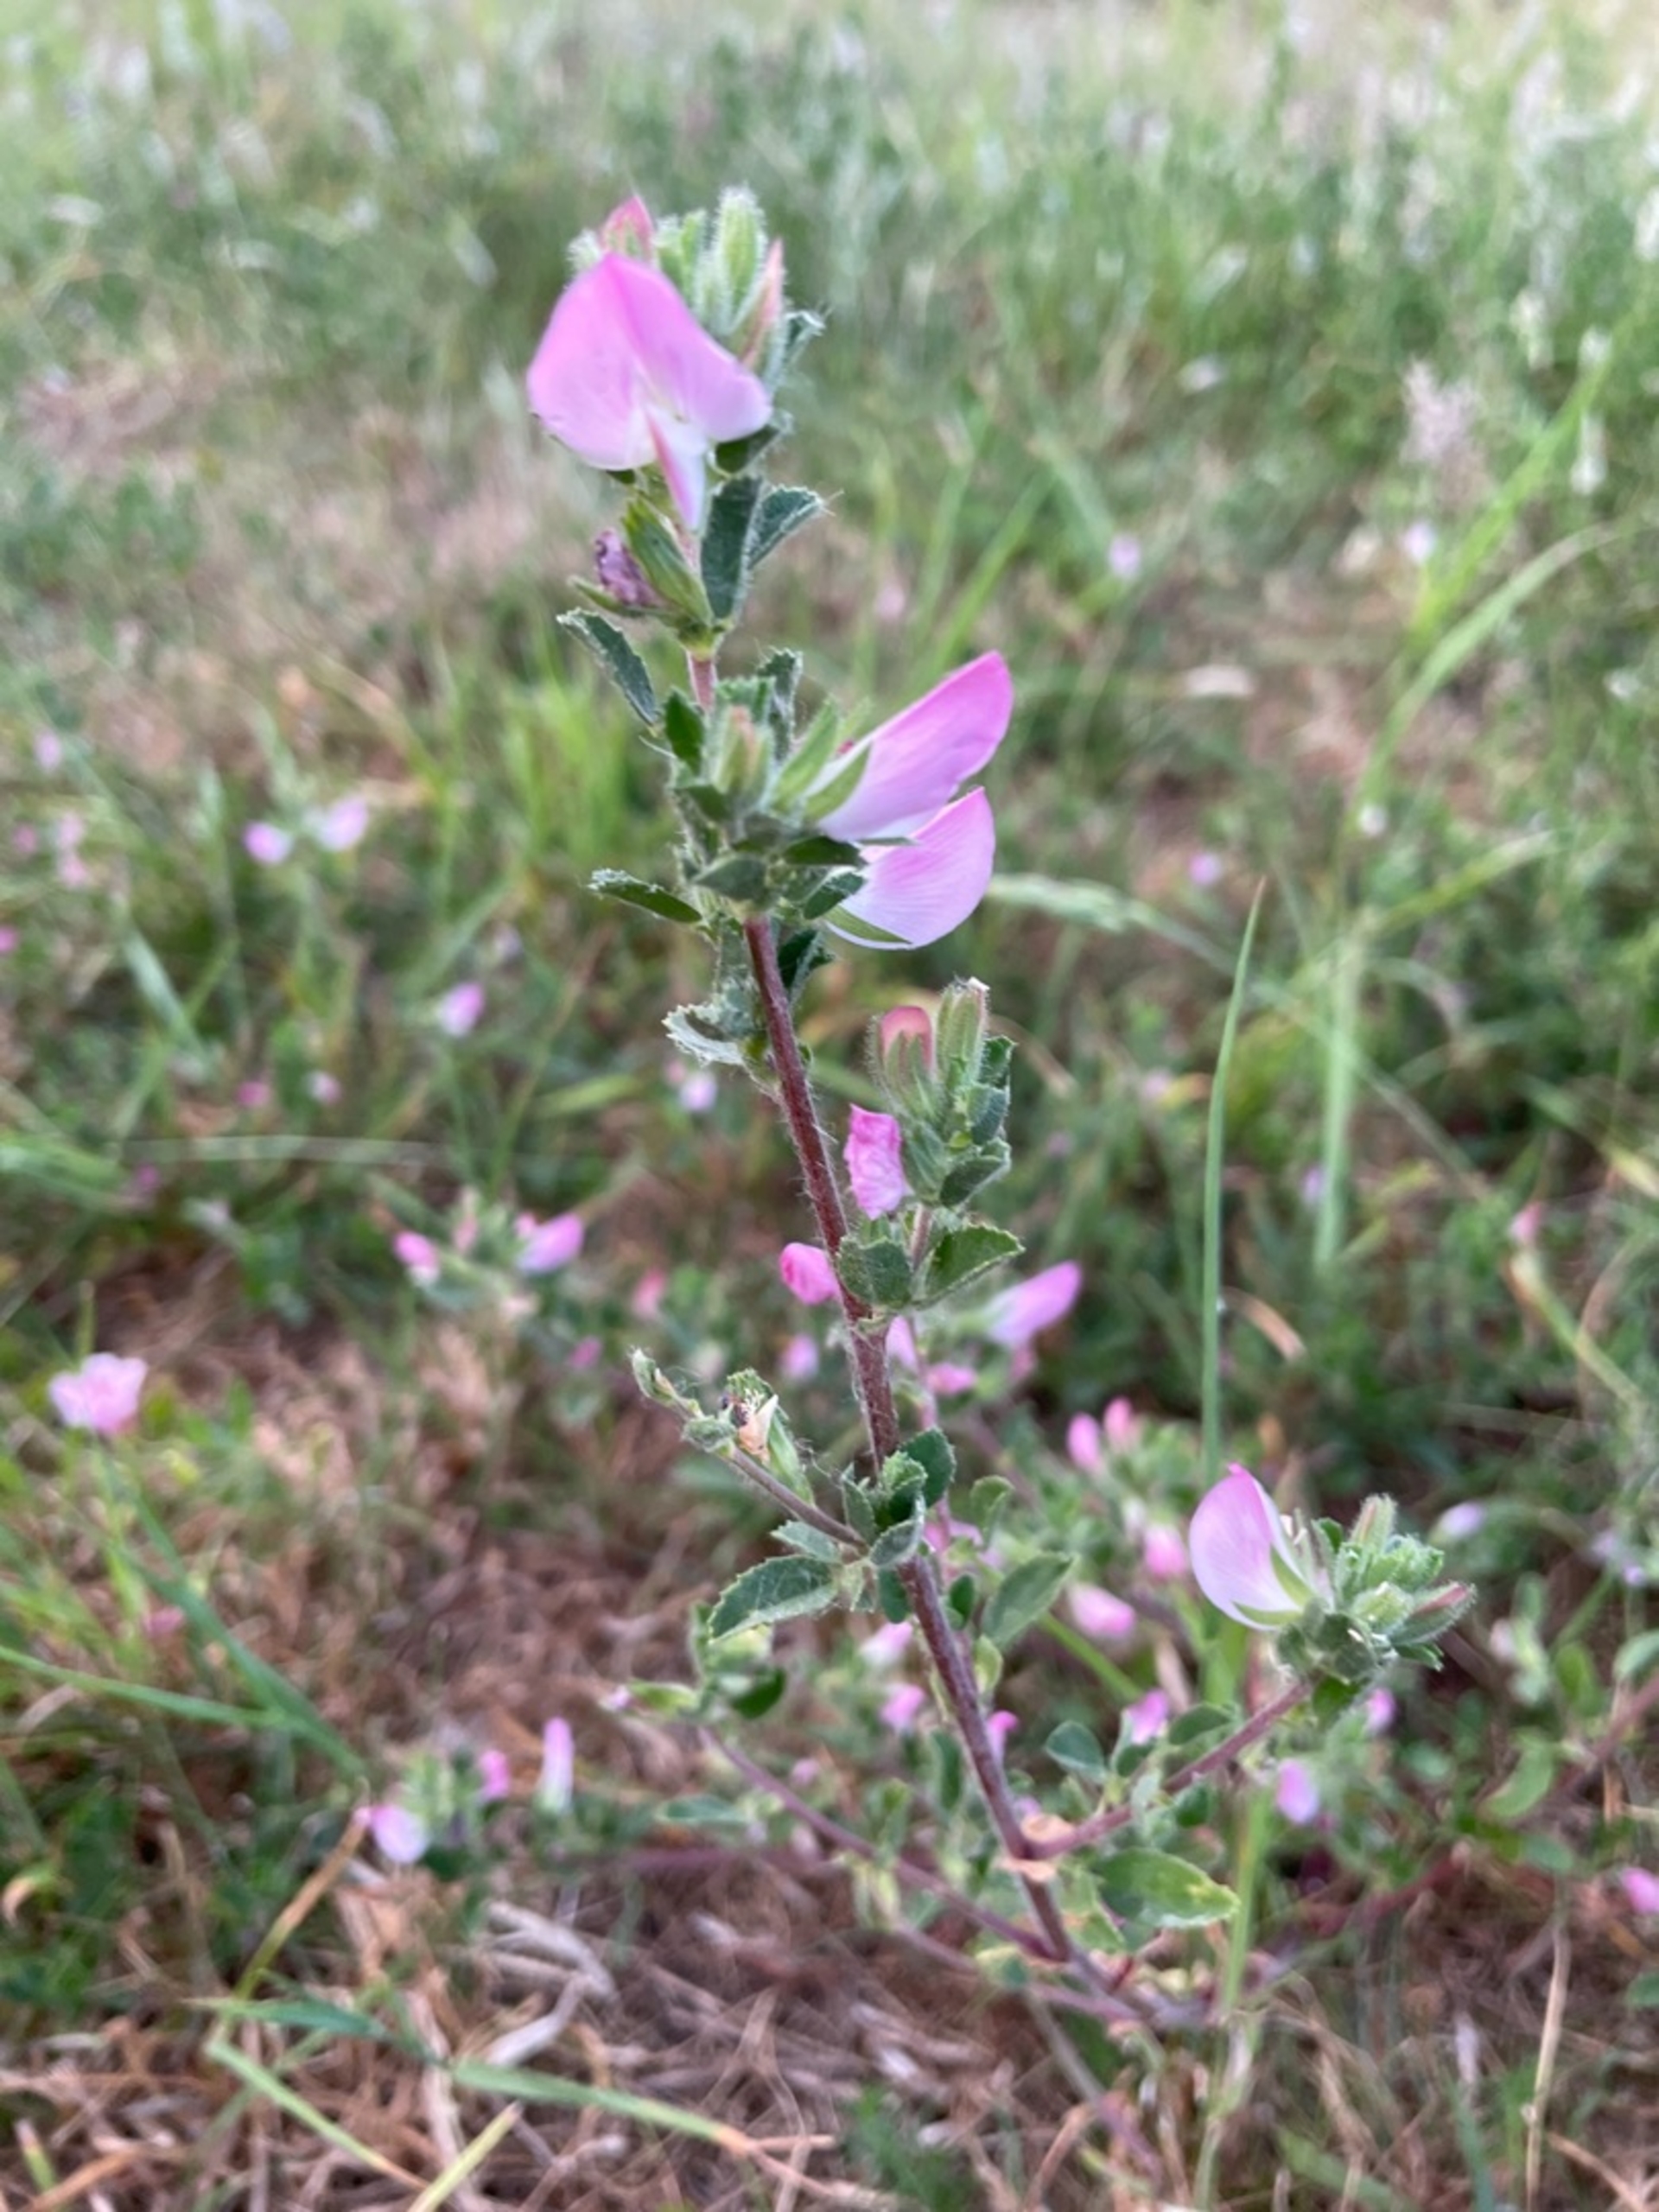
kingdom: Plantae
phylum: Tracheophyta
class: Magnoliopsida
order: Fabales
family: Fabaceae
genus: Ononis
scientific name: Ononis spinosa
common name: Krageklo
